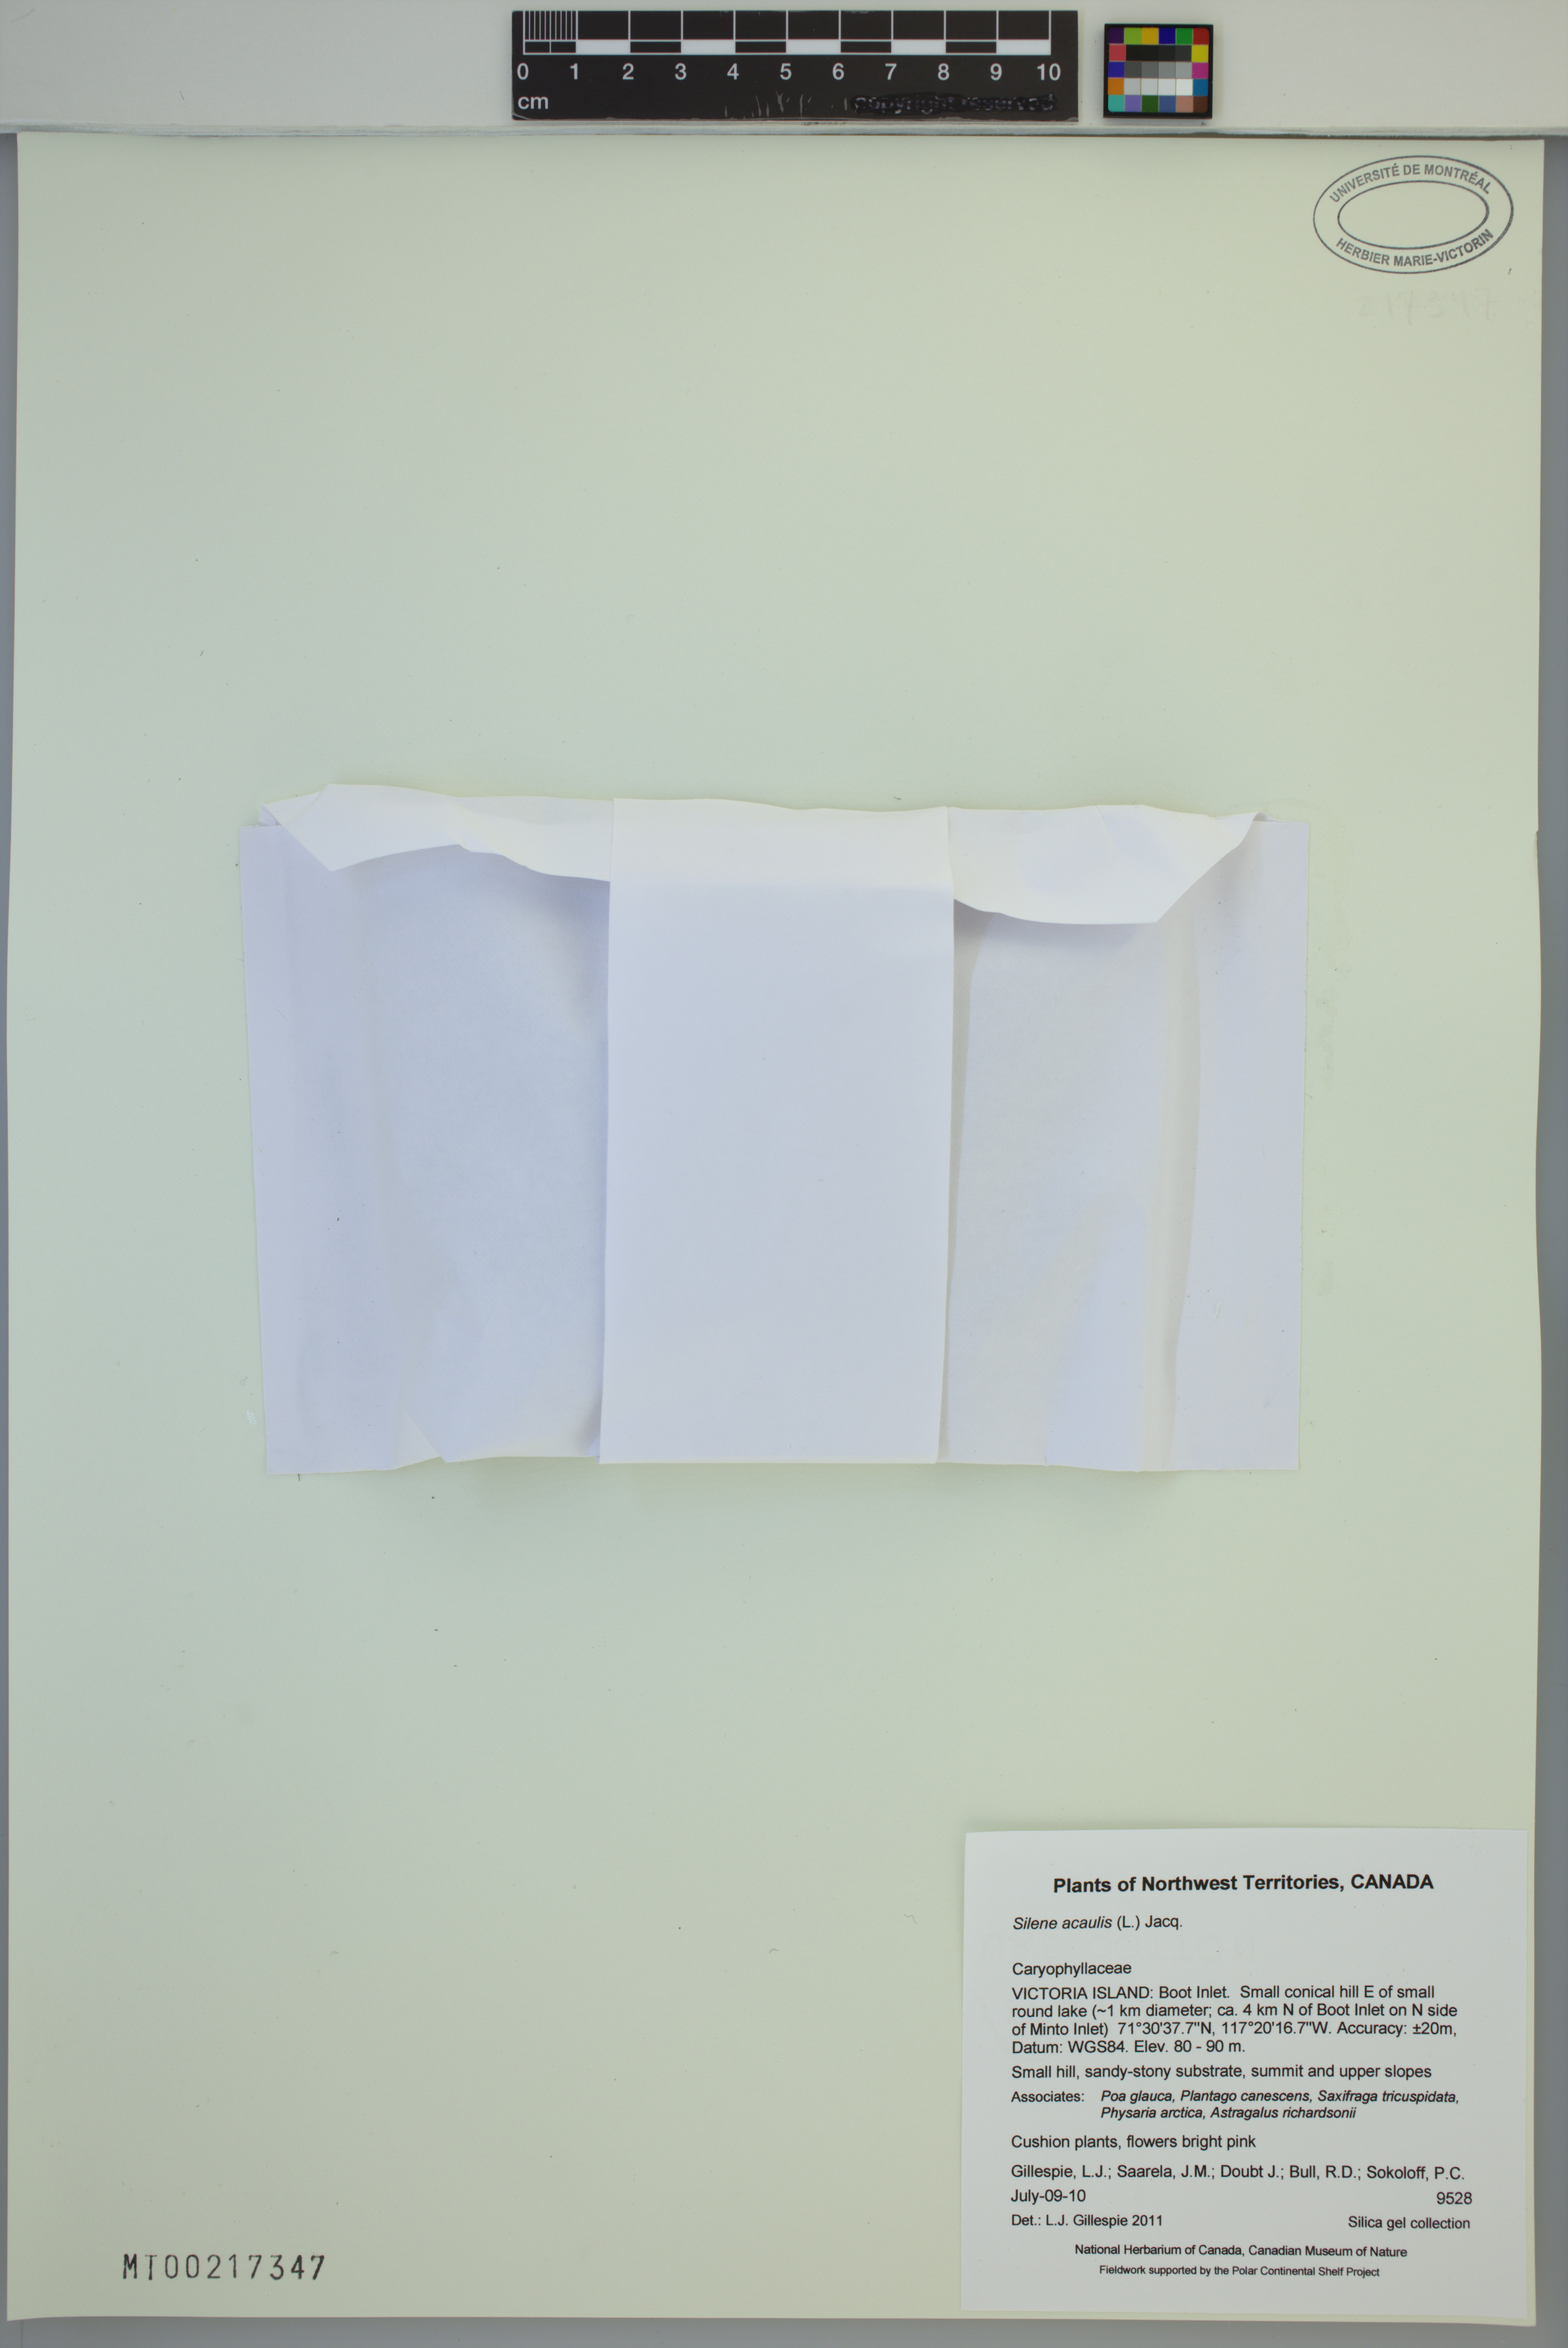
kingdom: Plantae
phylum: Tracheophyta
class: Magnoliopsida
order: Caryophyllales
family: Caryophyllaceae
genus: Silene
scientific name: Silene acaulis
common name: Moss campion
